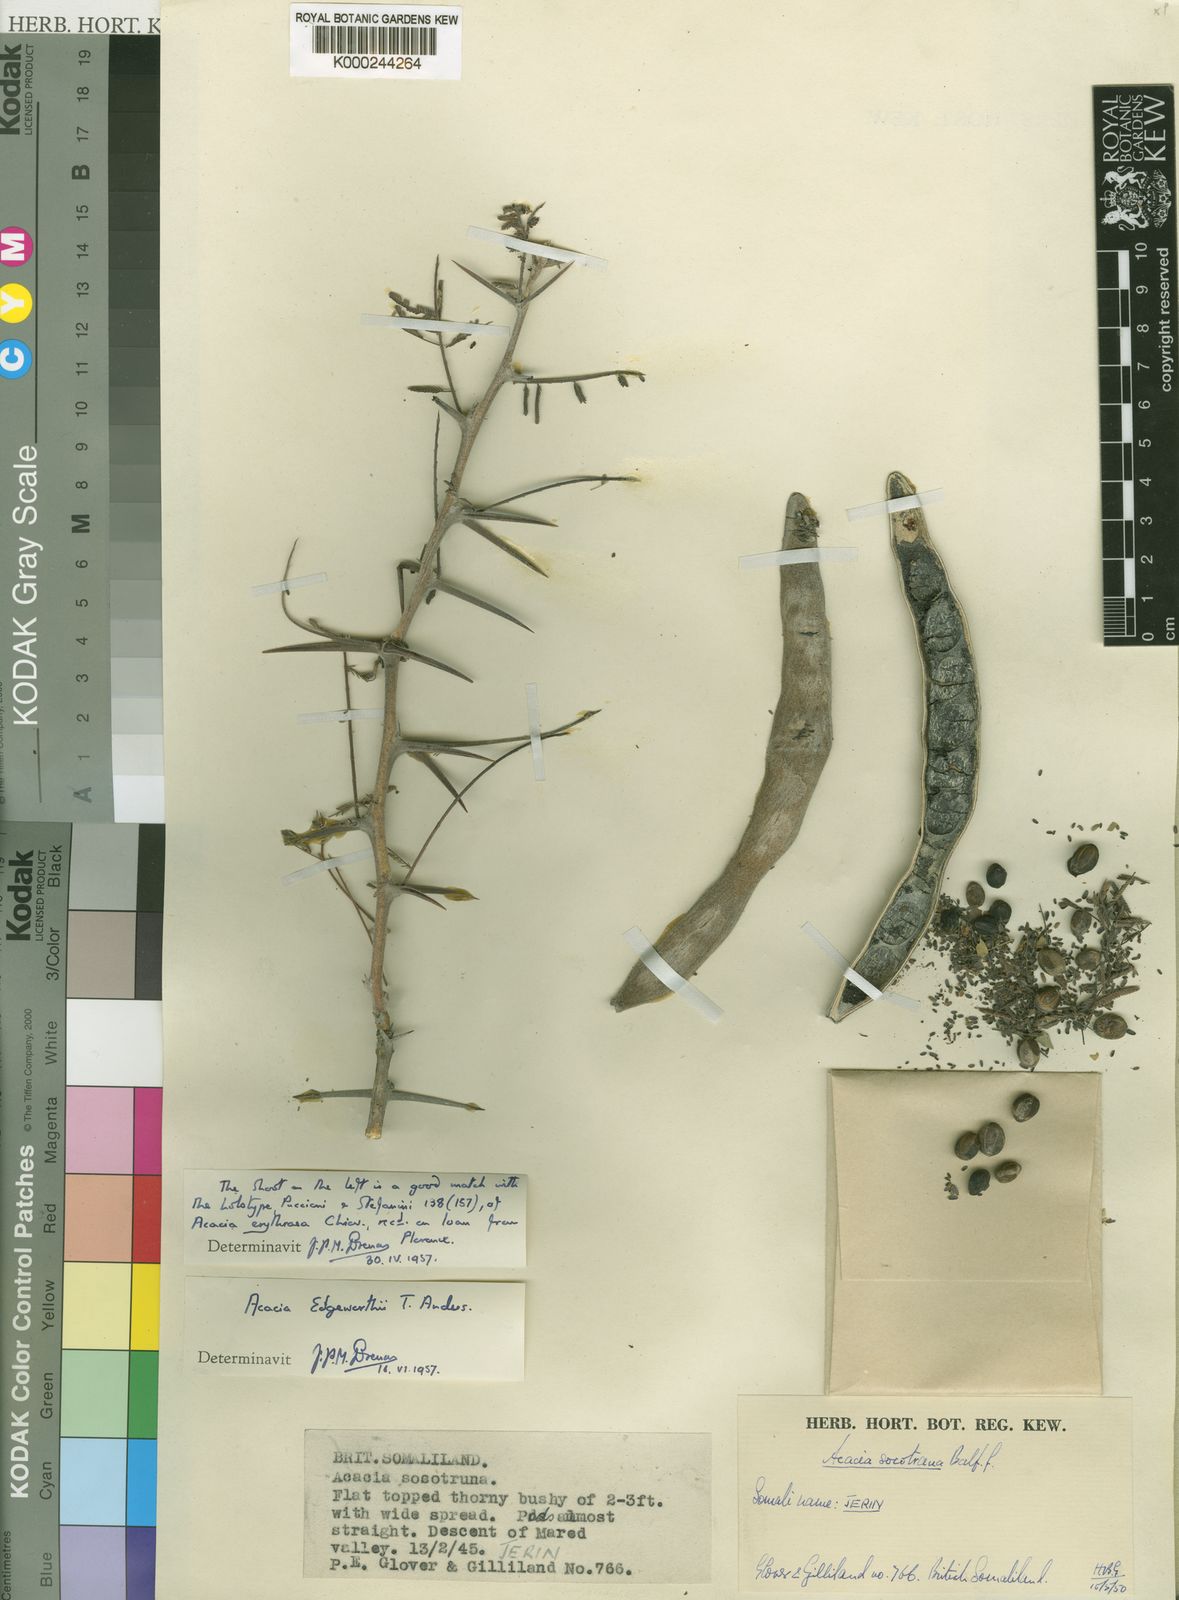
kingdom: Plantae
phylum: Tracheophyta
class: Magnoliopsida
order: Fabales
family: Fabaceae
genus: Vachellia
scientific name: Vachellia edgeworthii
